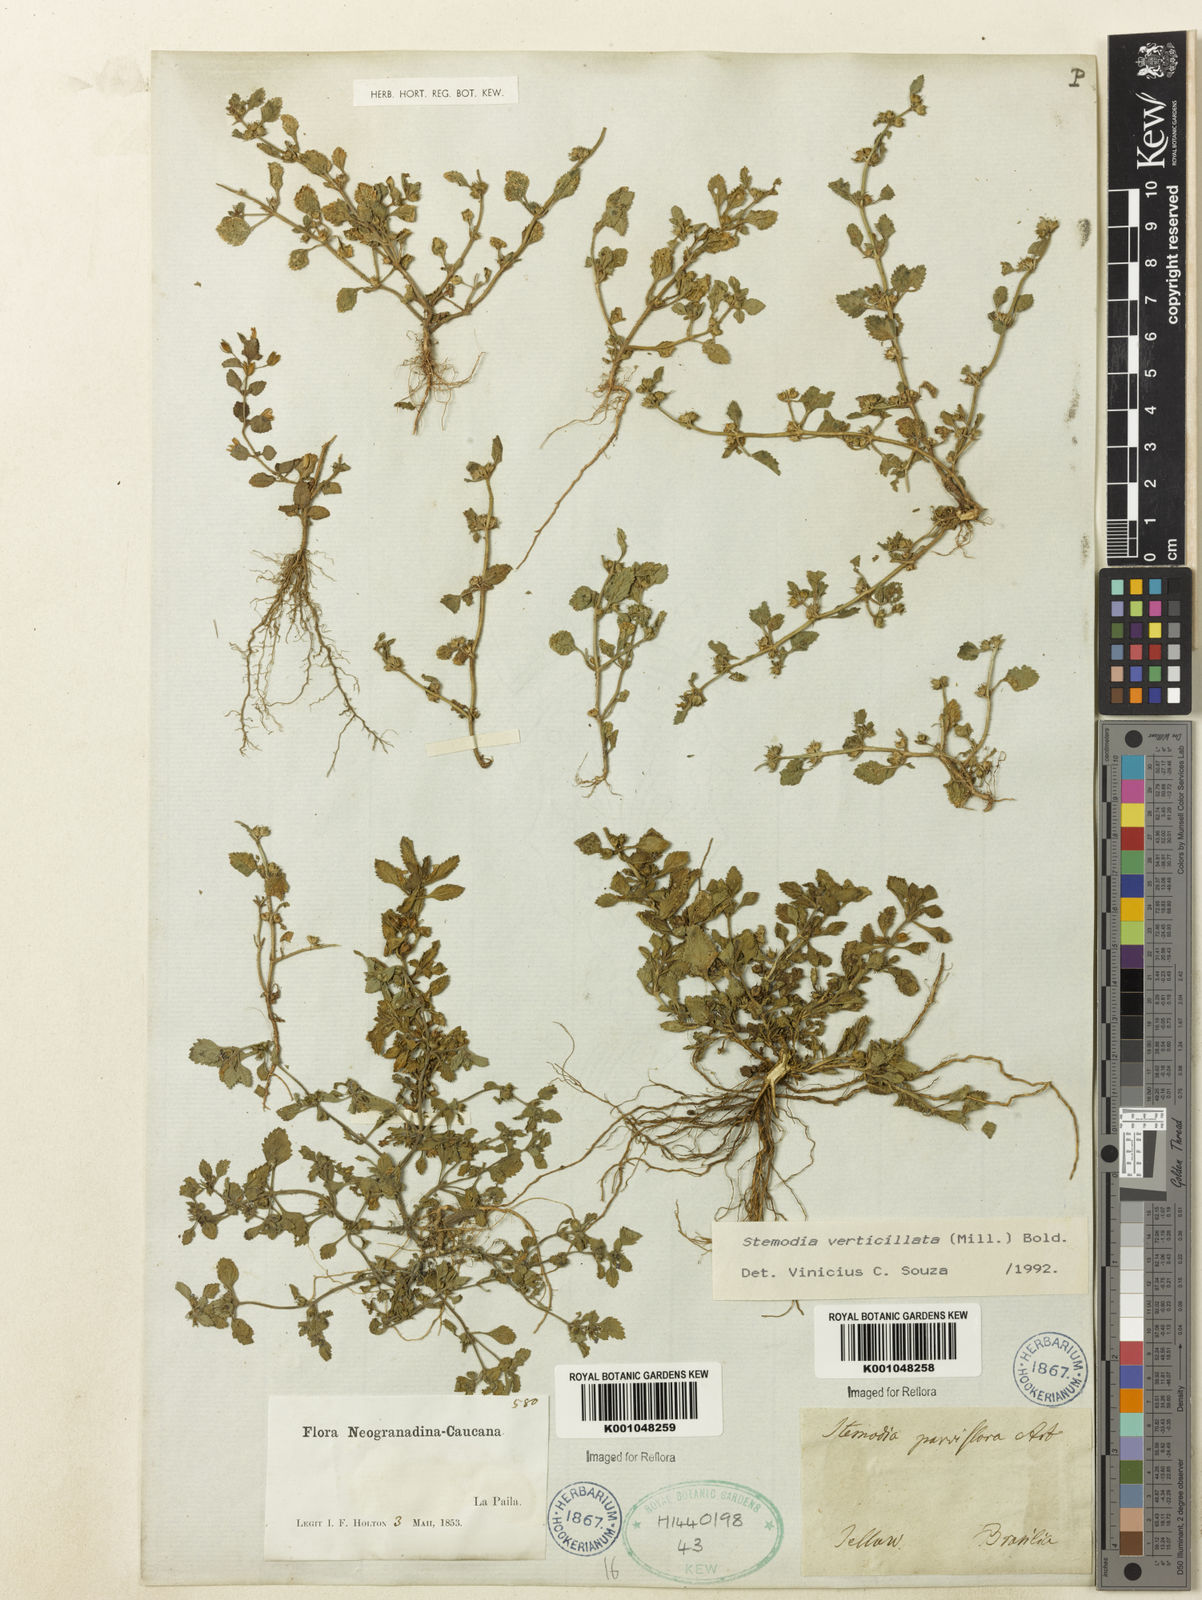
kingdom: Plantae
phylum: Tracheophyta
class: Magnoliopsida
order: Lamiales
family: Plantaginaceae
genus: Stemodia
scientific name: Stemodia verticillata
